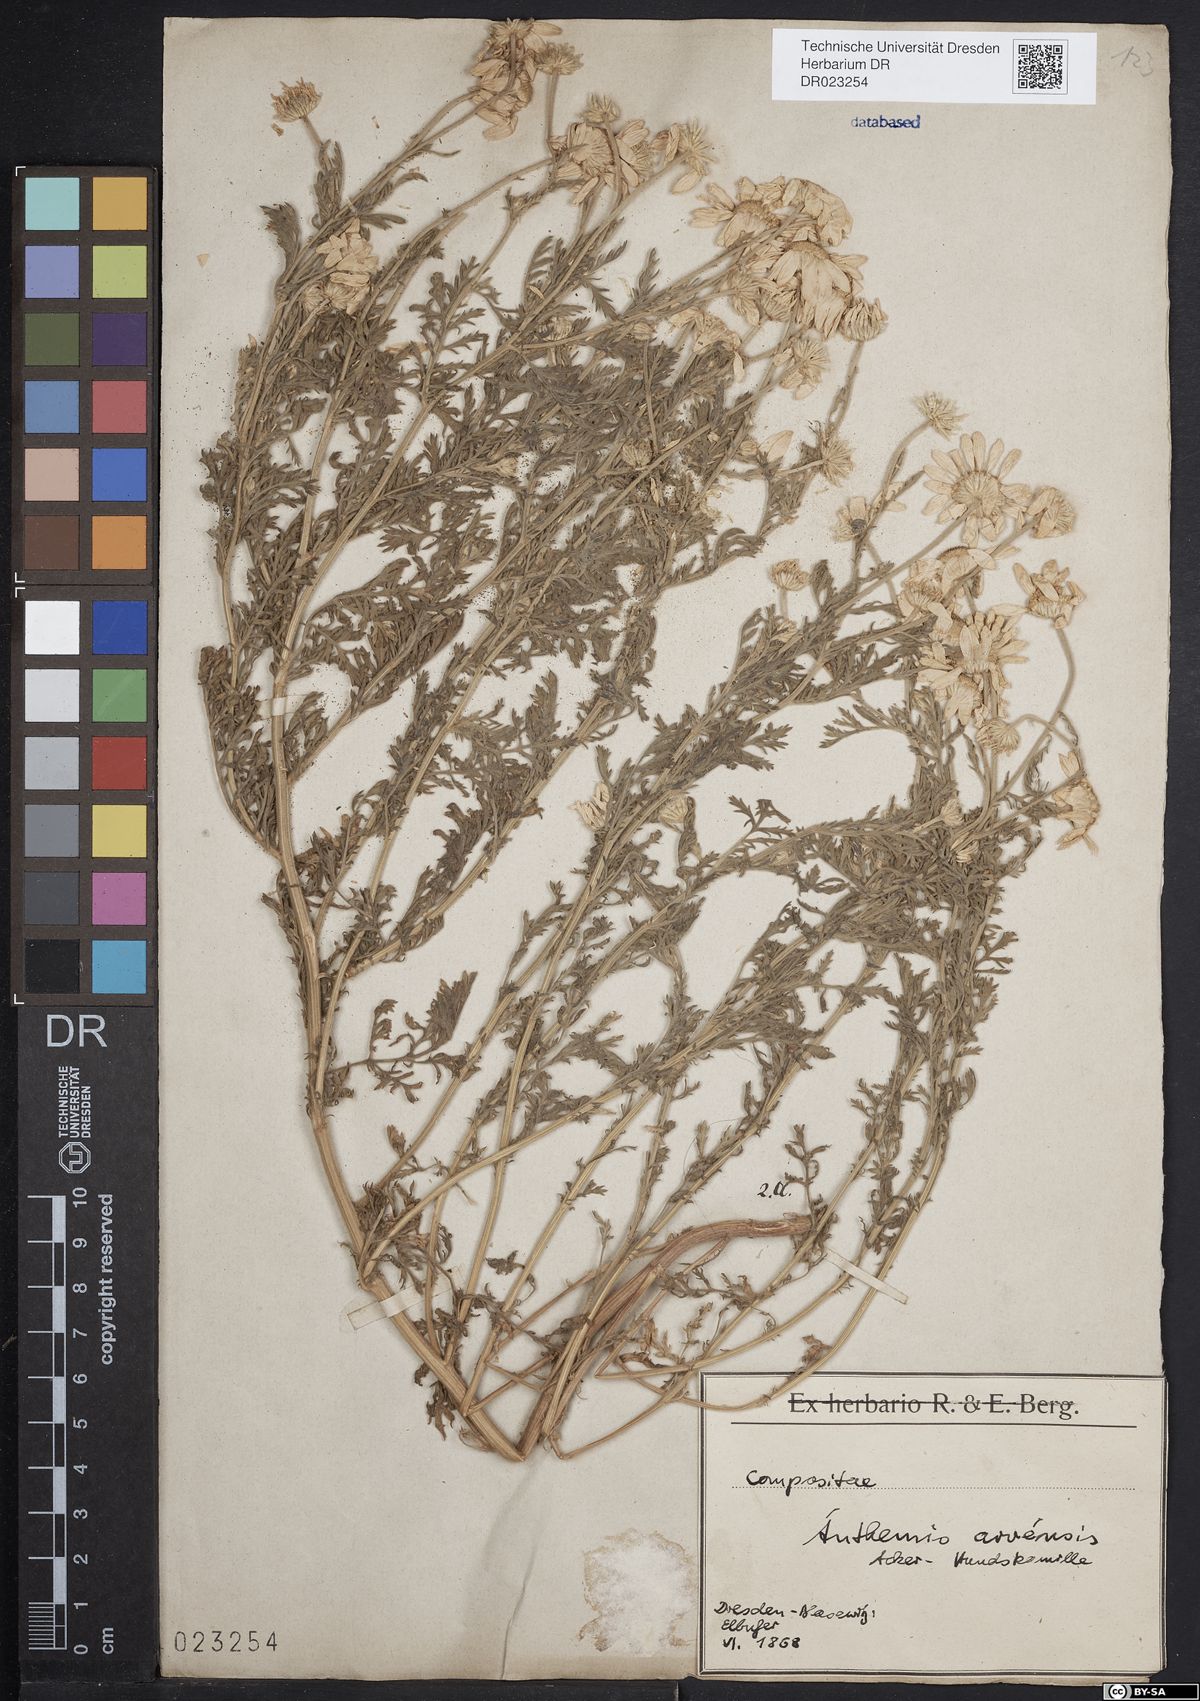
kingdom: Plantae
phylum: Tracheophyta
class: Magnoliopsida
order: Asterales
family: Asteraceae
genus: Anthemis
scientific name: Anthemis arvensis
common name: Corn chamomile
